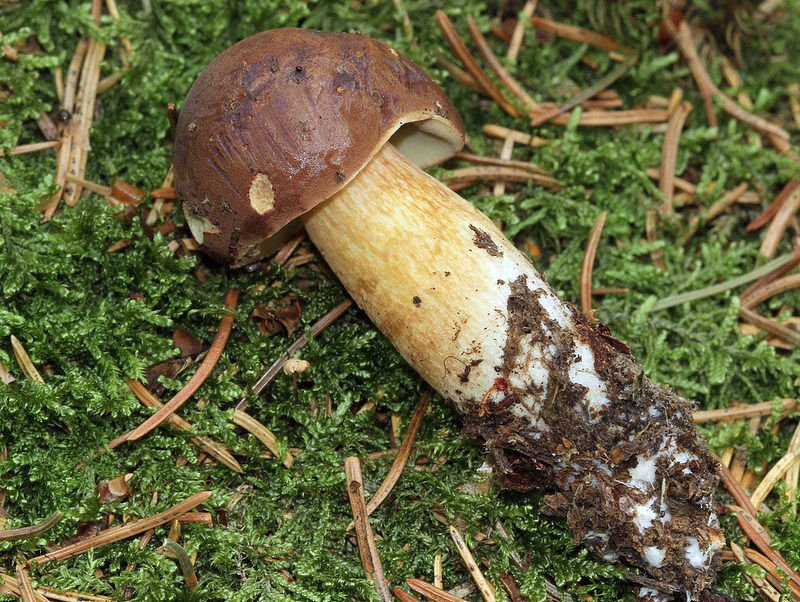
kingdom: Fungi
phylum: Basidiomycota
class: Agaricomycetes
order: Boletales
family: Boletaceae
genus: Imleria
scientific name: Imleria badia
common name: brunstokket rørhat
